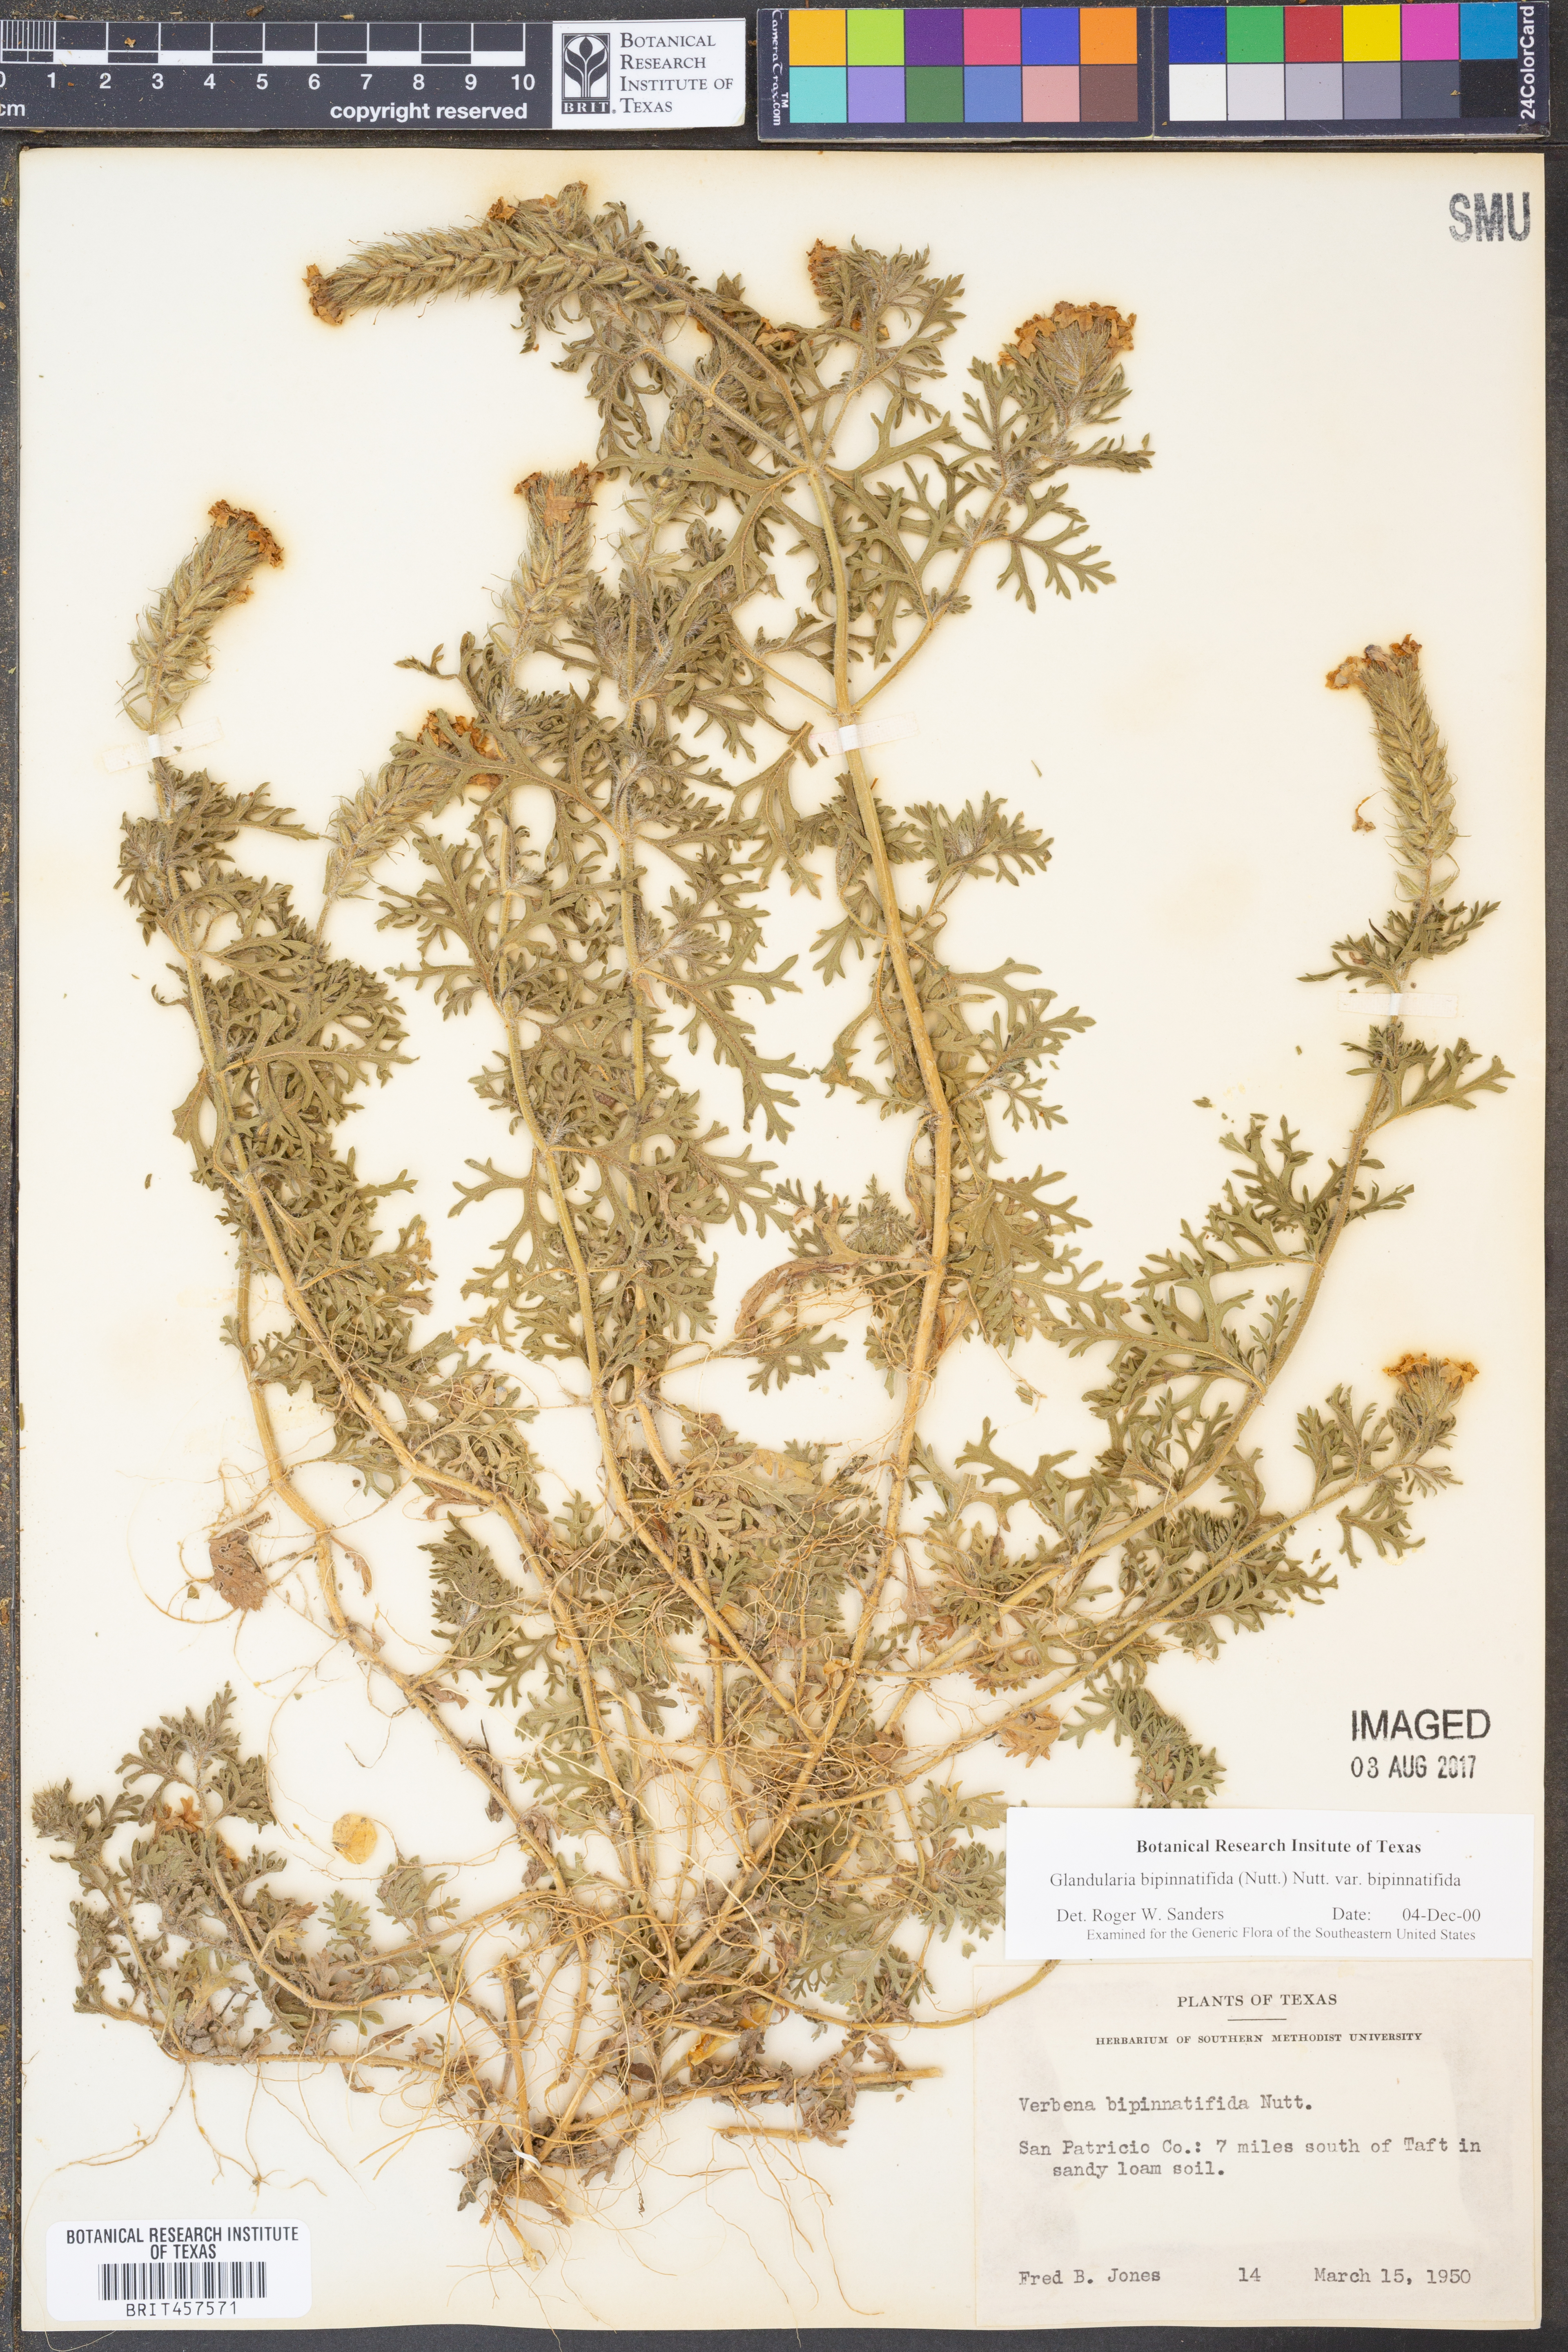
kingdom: Plantae
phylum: Tracheophyta
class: Magnoliopsida
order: Lamiales
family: Verbenaceae
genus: Verbena
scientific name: Verbena bipinnatifida
